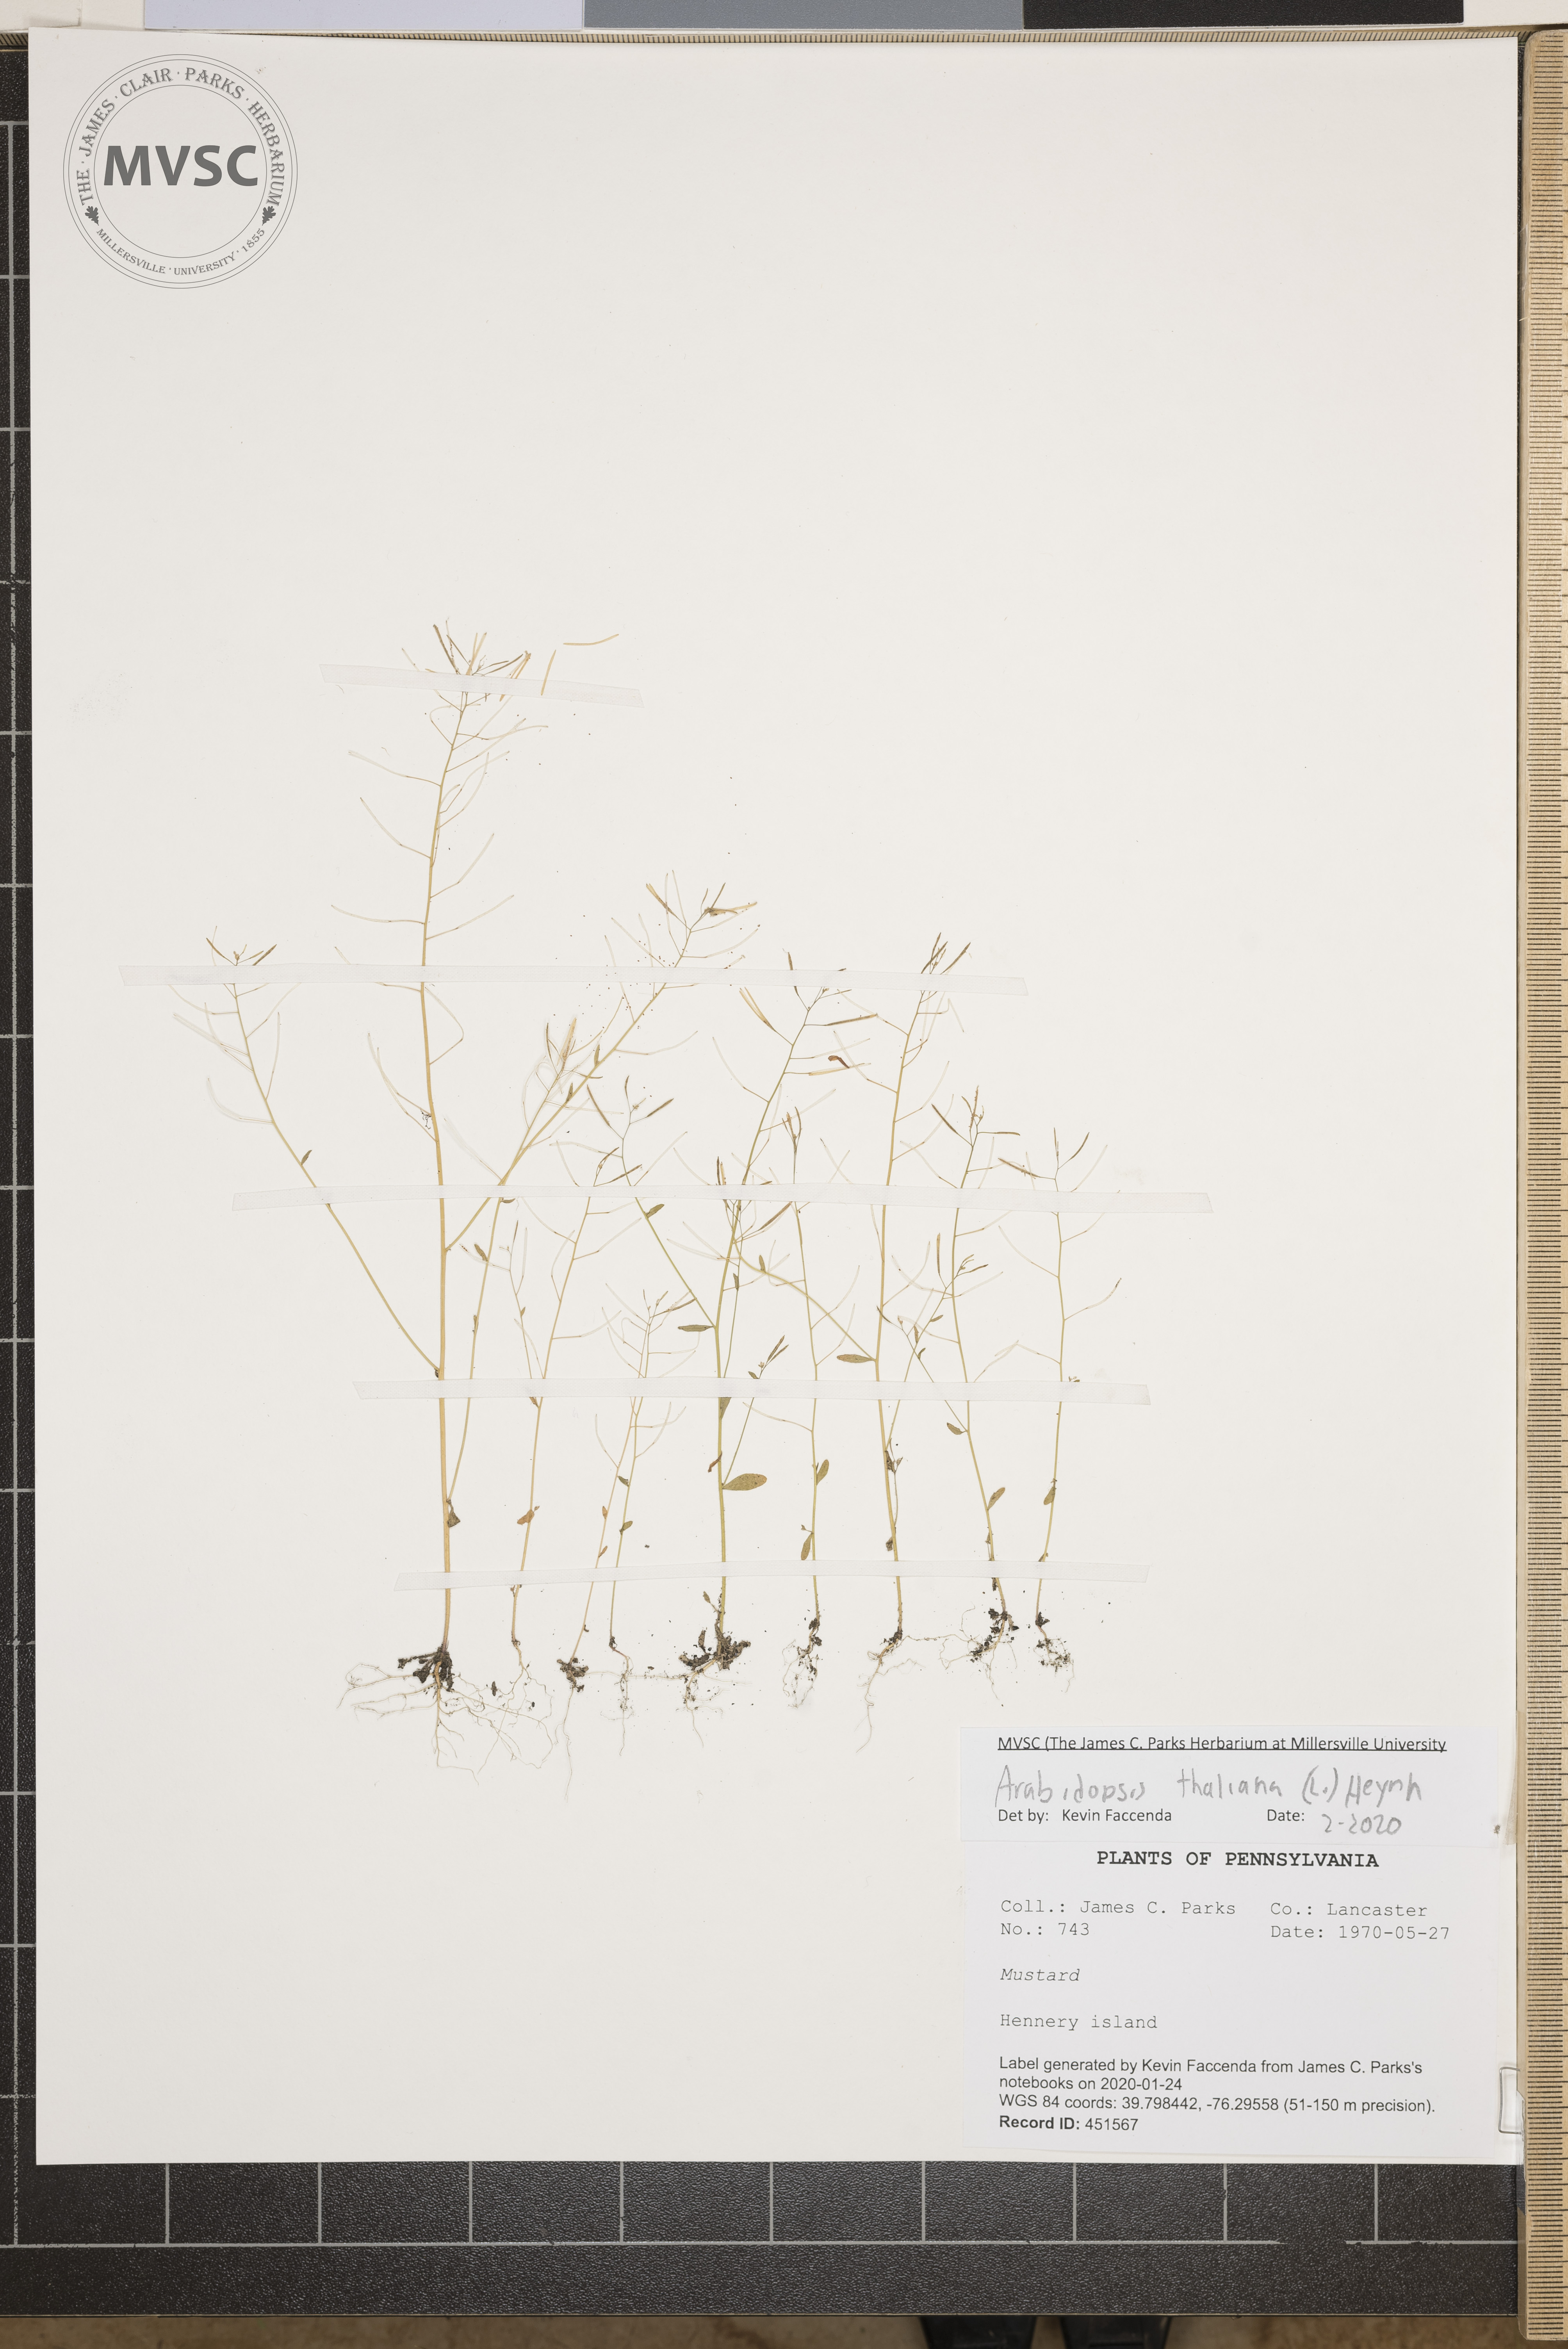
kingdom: Plantae
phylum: Tracheophyta
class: Magnoliopsida
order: Brassicales
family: Brassicaceae
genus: Arabidopsis
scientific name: Arabidopsis thaliana
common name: Thale cress
